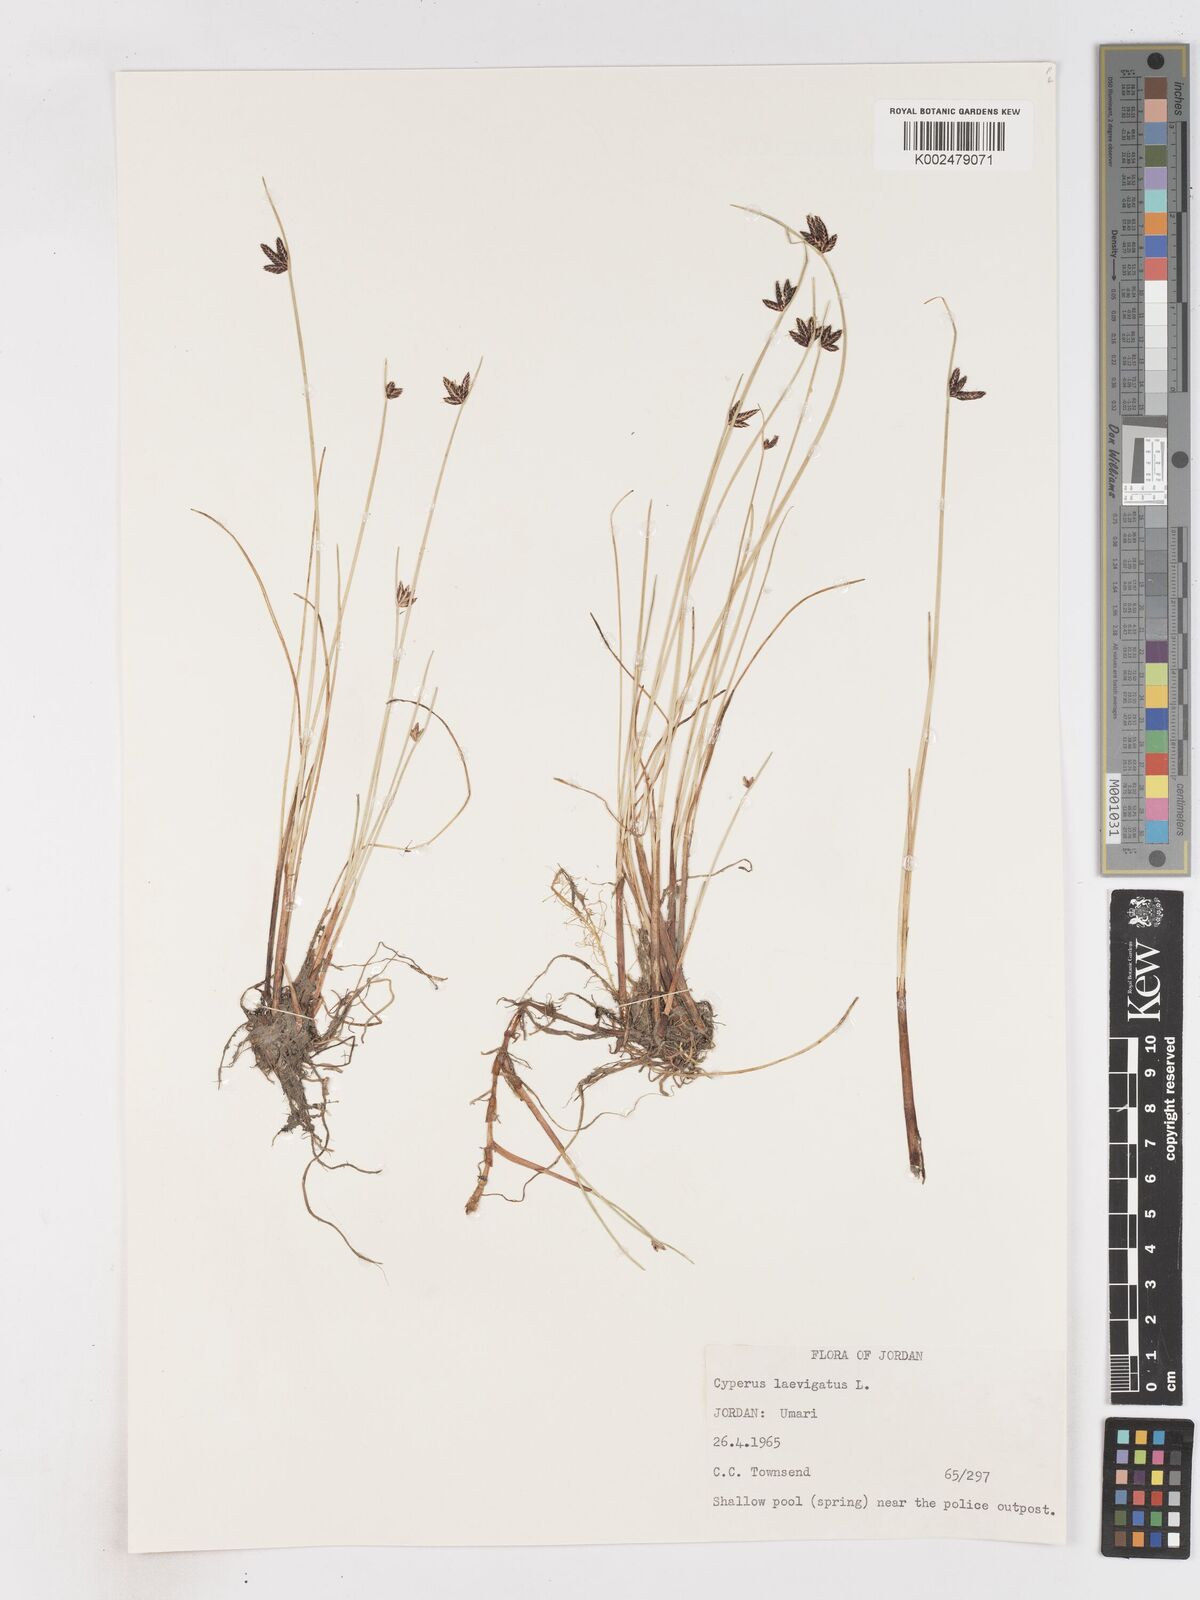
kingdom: Plantae
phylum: Tracheophyta
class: Liliopsida
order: Poales
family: Cyperaceae
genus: Cyperus
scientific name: Cyperus laevigatus
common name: Smooth flat sedge
